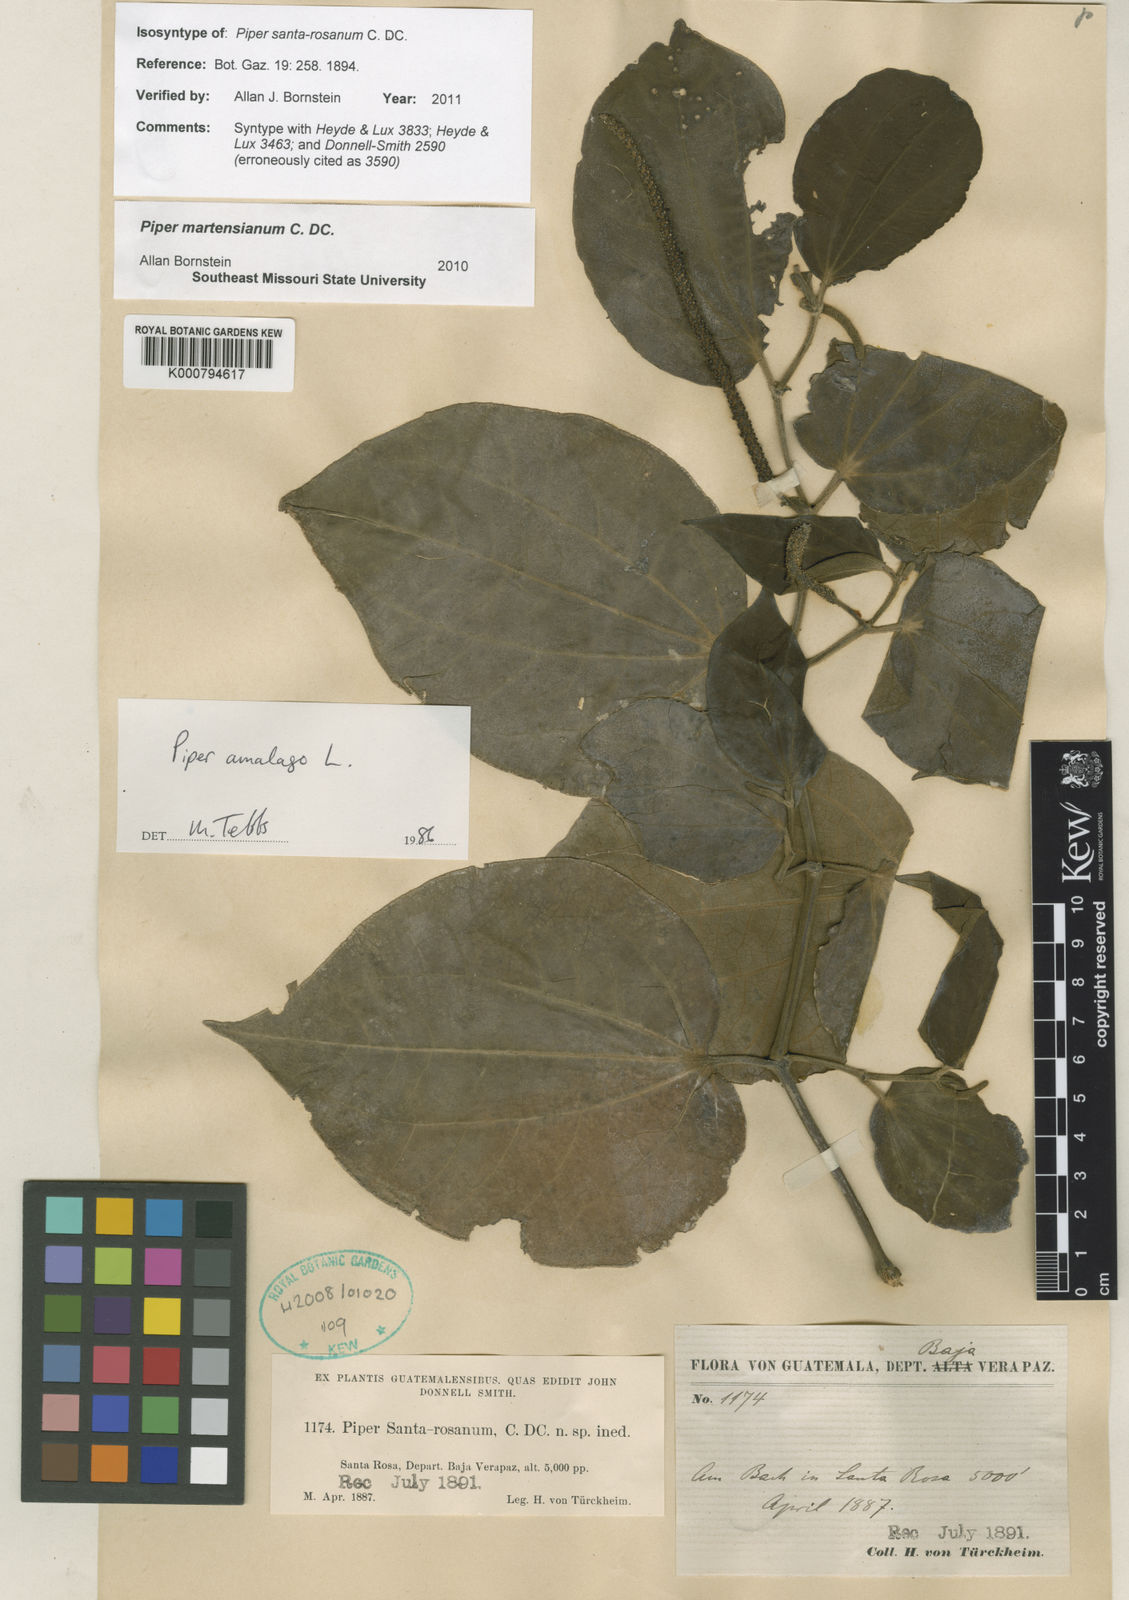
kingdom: Plantae
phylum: Tracheophyta
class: Magnoliopsida
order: Piperales
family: Piperaceae
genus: Piper
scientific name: Piper martensianum
